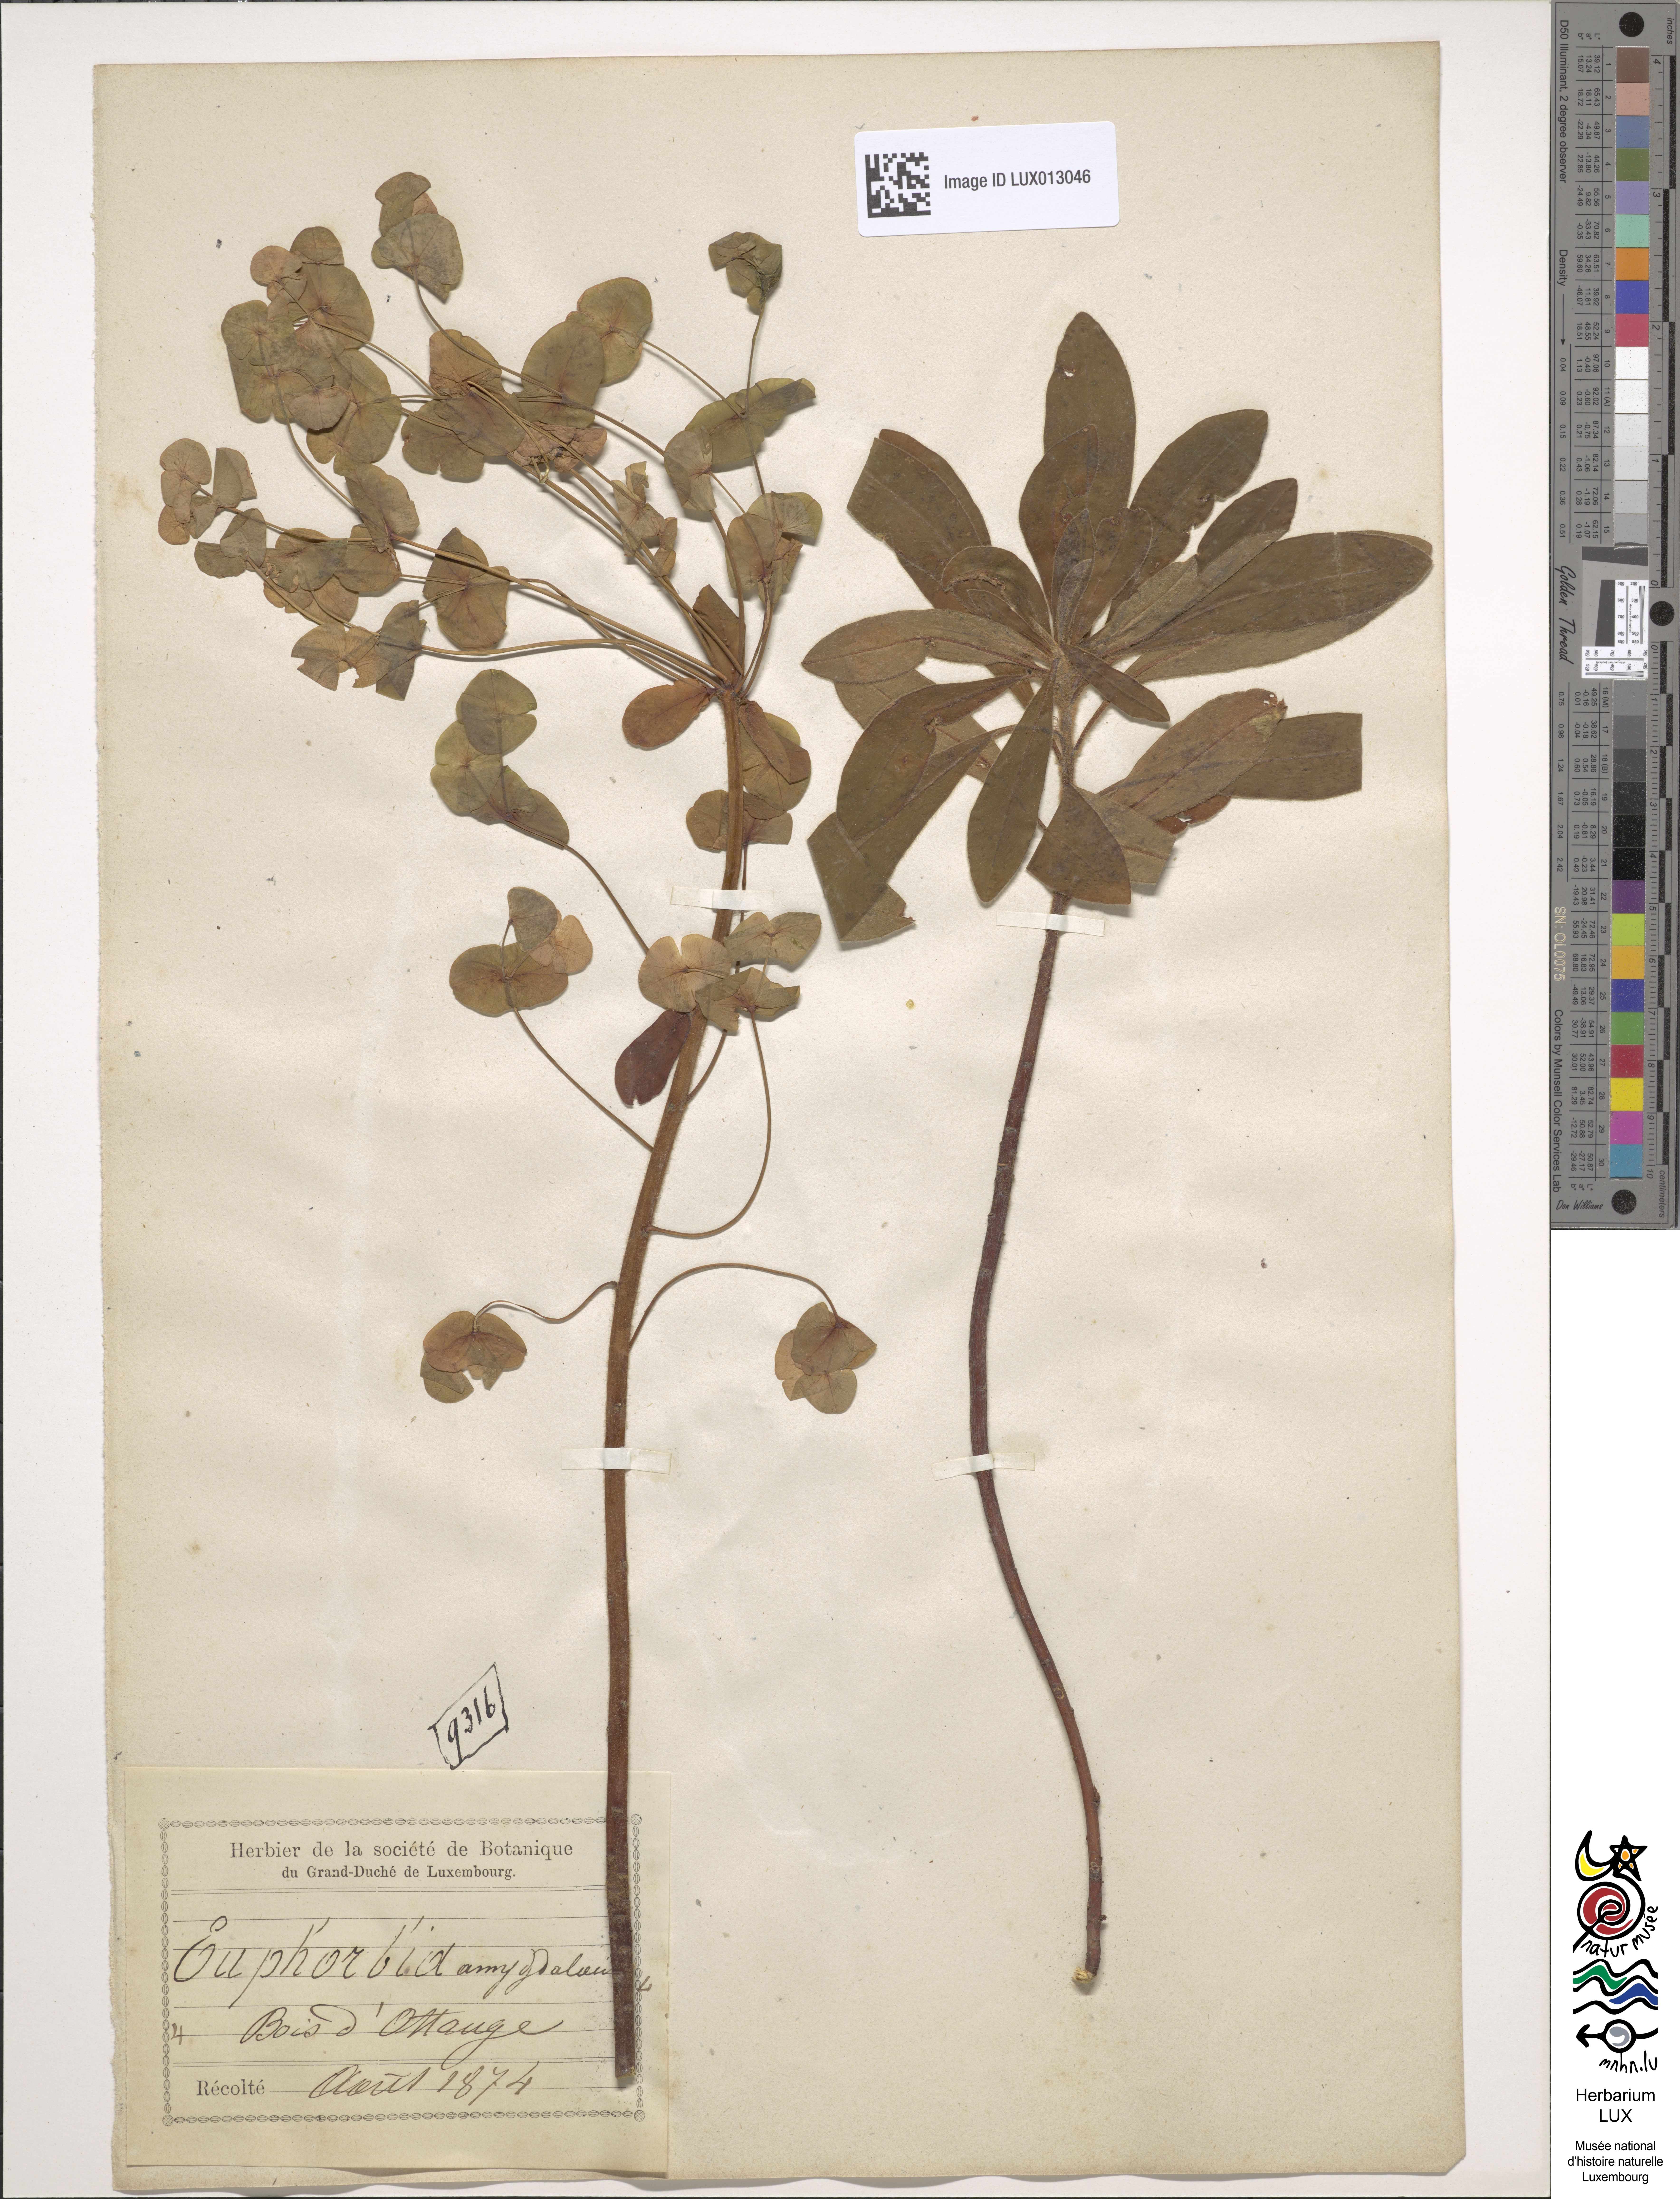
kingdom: Plantae
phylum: Tracheophyta
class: Magnoliopsida
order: Malpighiales
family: Euphorbiaceae
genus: Euphorbia
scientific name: Euphorbia amygdaloides
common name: Wood spurge
